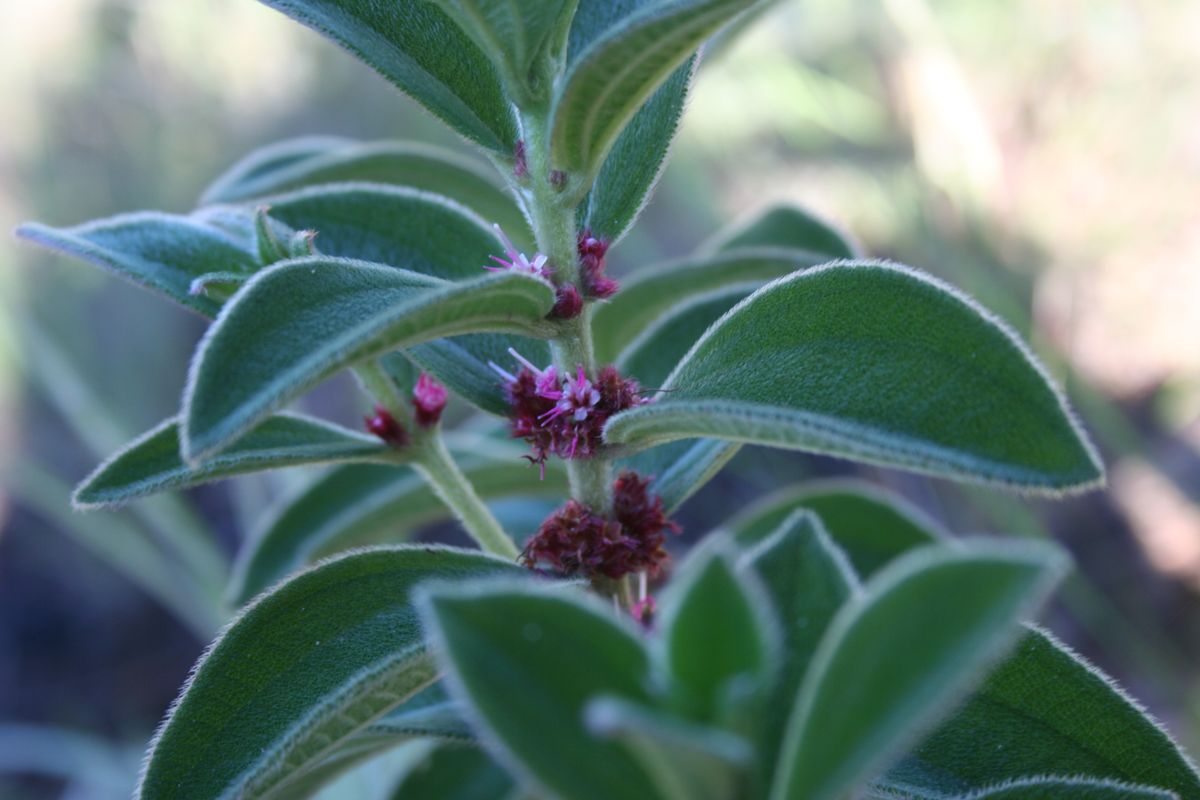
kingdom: Plantae
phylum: Tracheophyta
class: Magnoliopsida
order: Myrtales
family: Melastomataceae
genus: Miconia
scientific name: Miconia sericea
